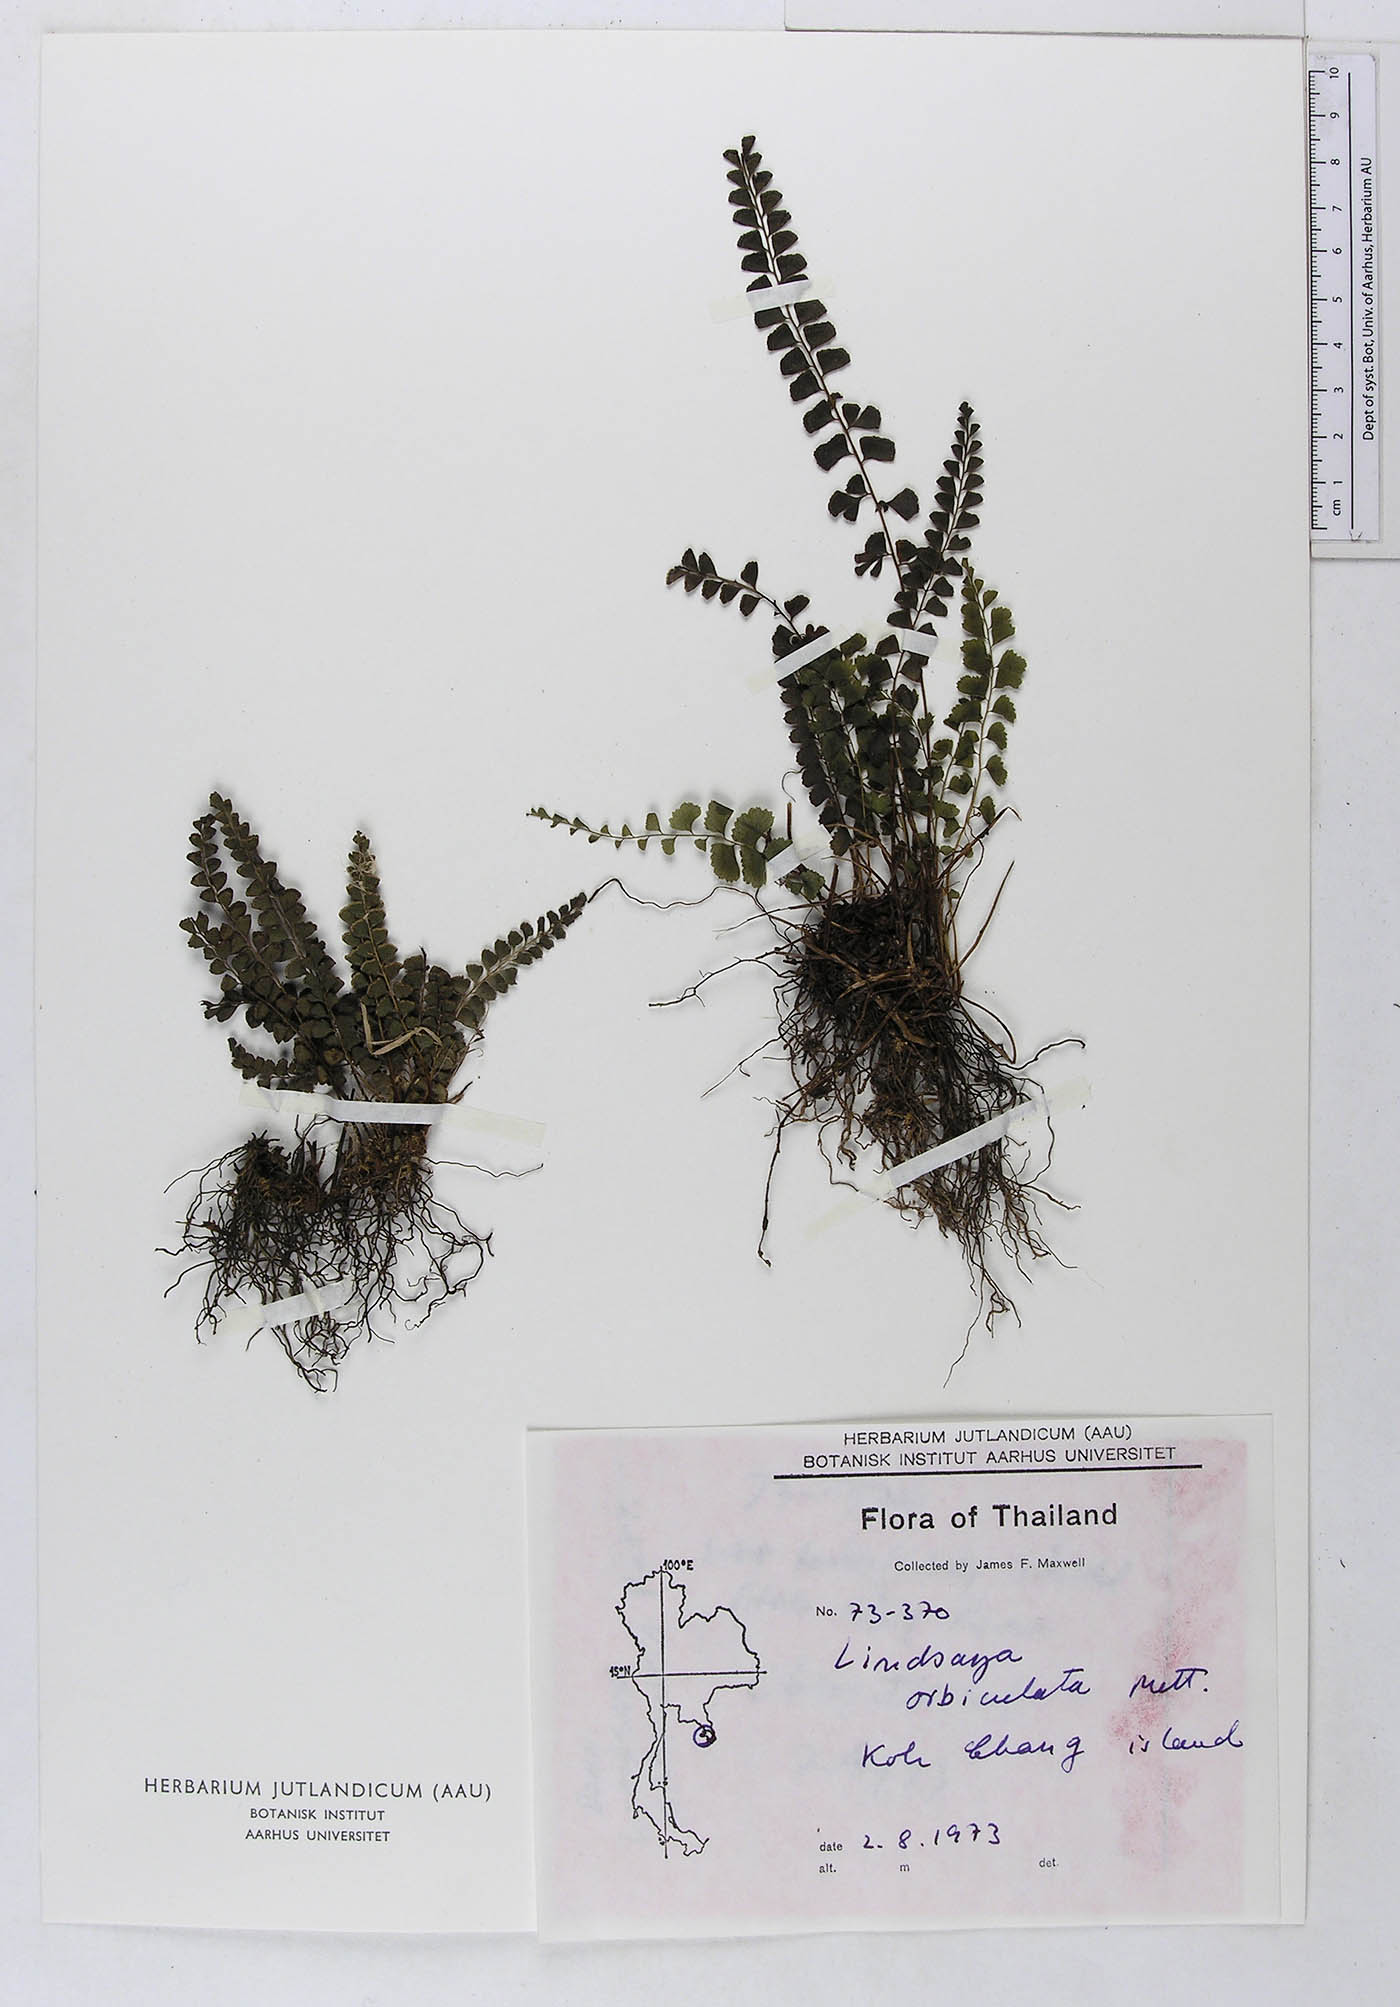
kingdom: Plantae
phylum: Tracheophyta
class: Polypodiopsida
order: Polypodiales
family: Lindsaeaceae
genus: Lindsaea
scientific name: Lindsaea orbiculata
